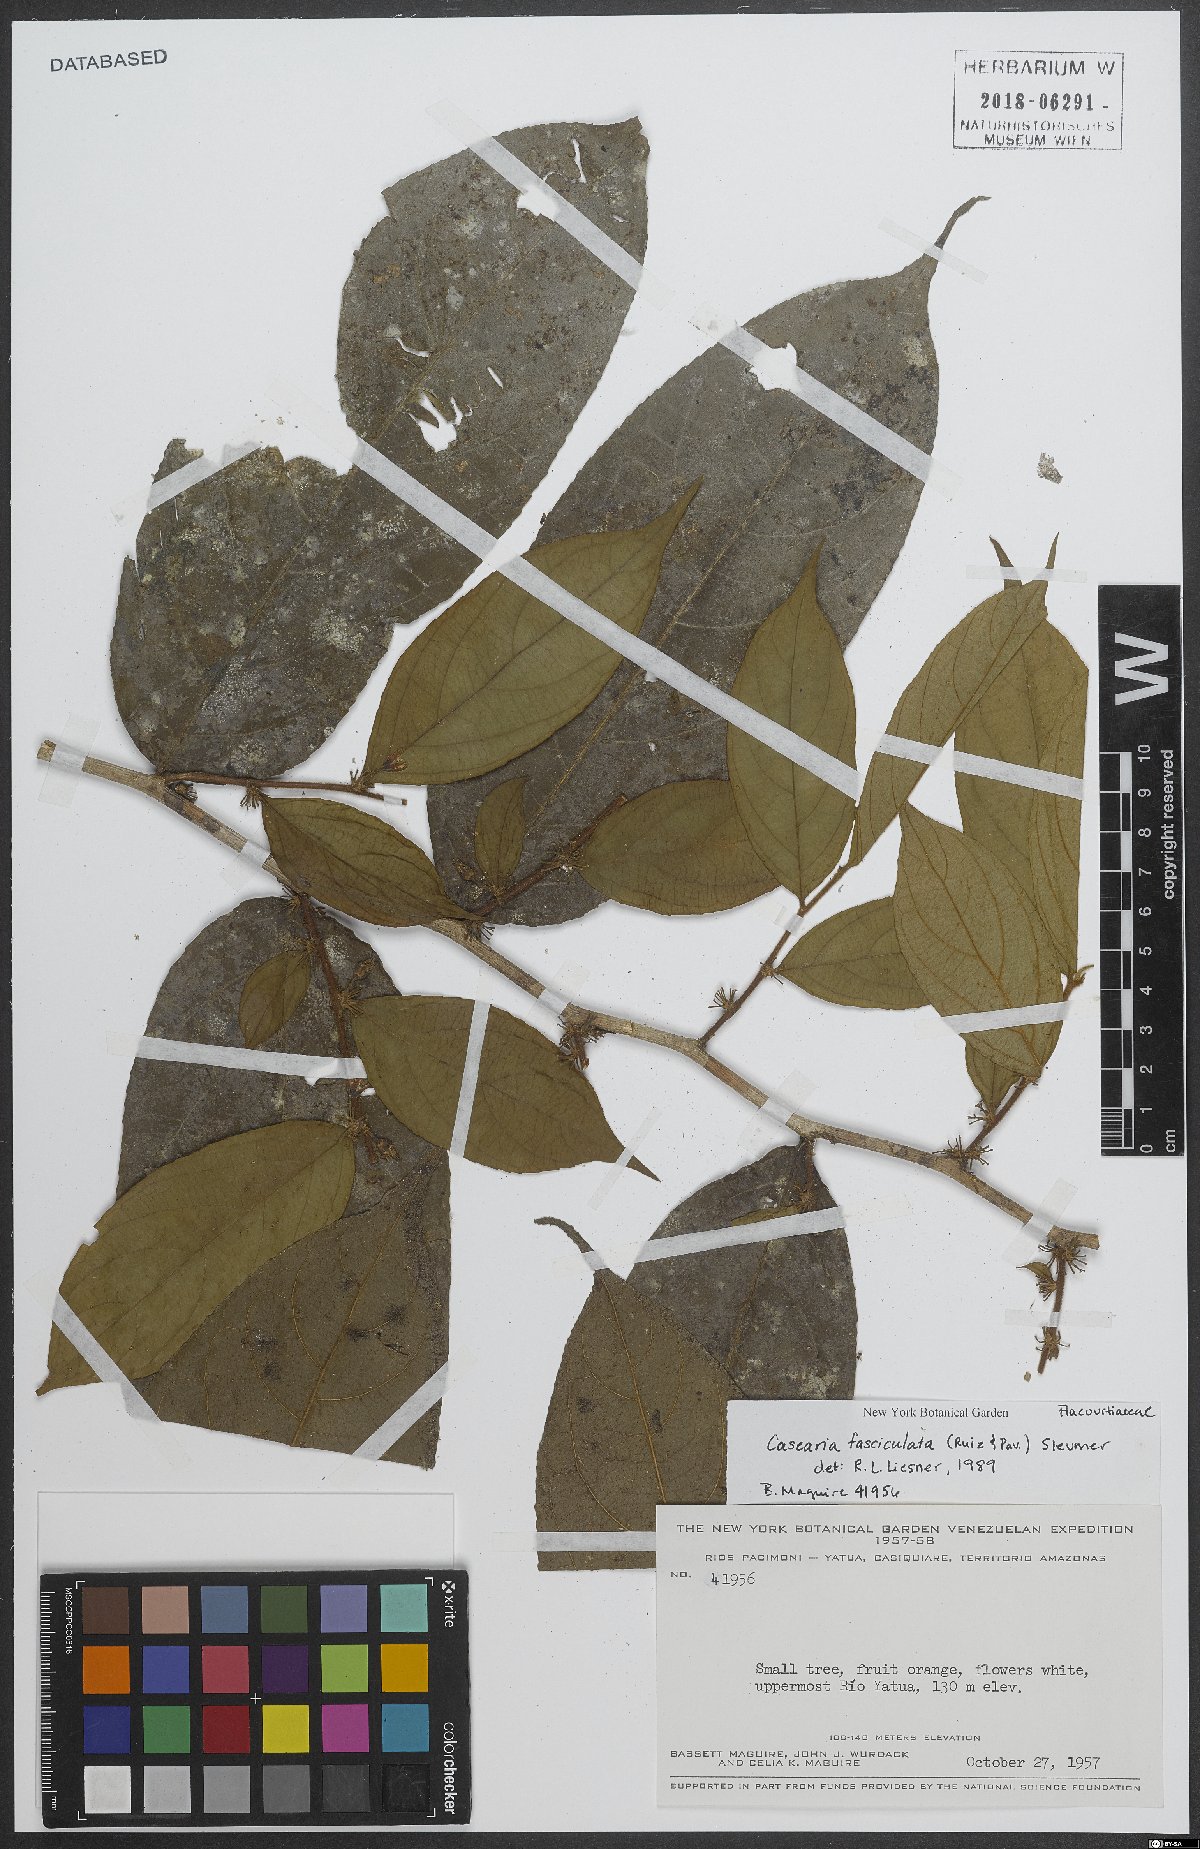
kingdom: Plantae
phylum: Tracheophyta
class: Magnoliopsida
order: Malpighiales
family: Salicaceae
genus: Casearia
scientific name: Casearia fasciculata
